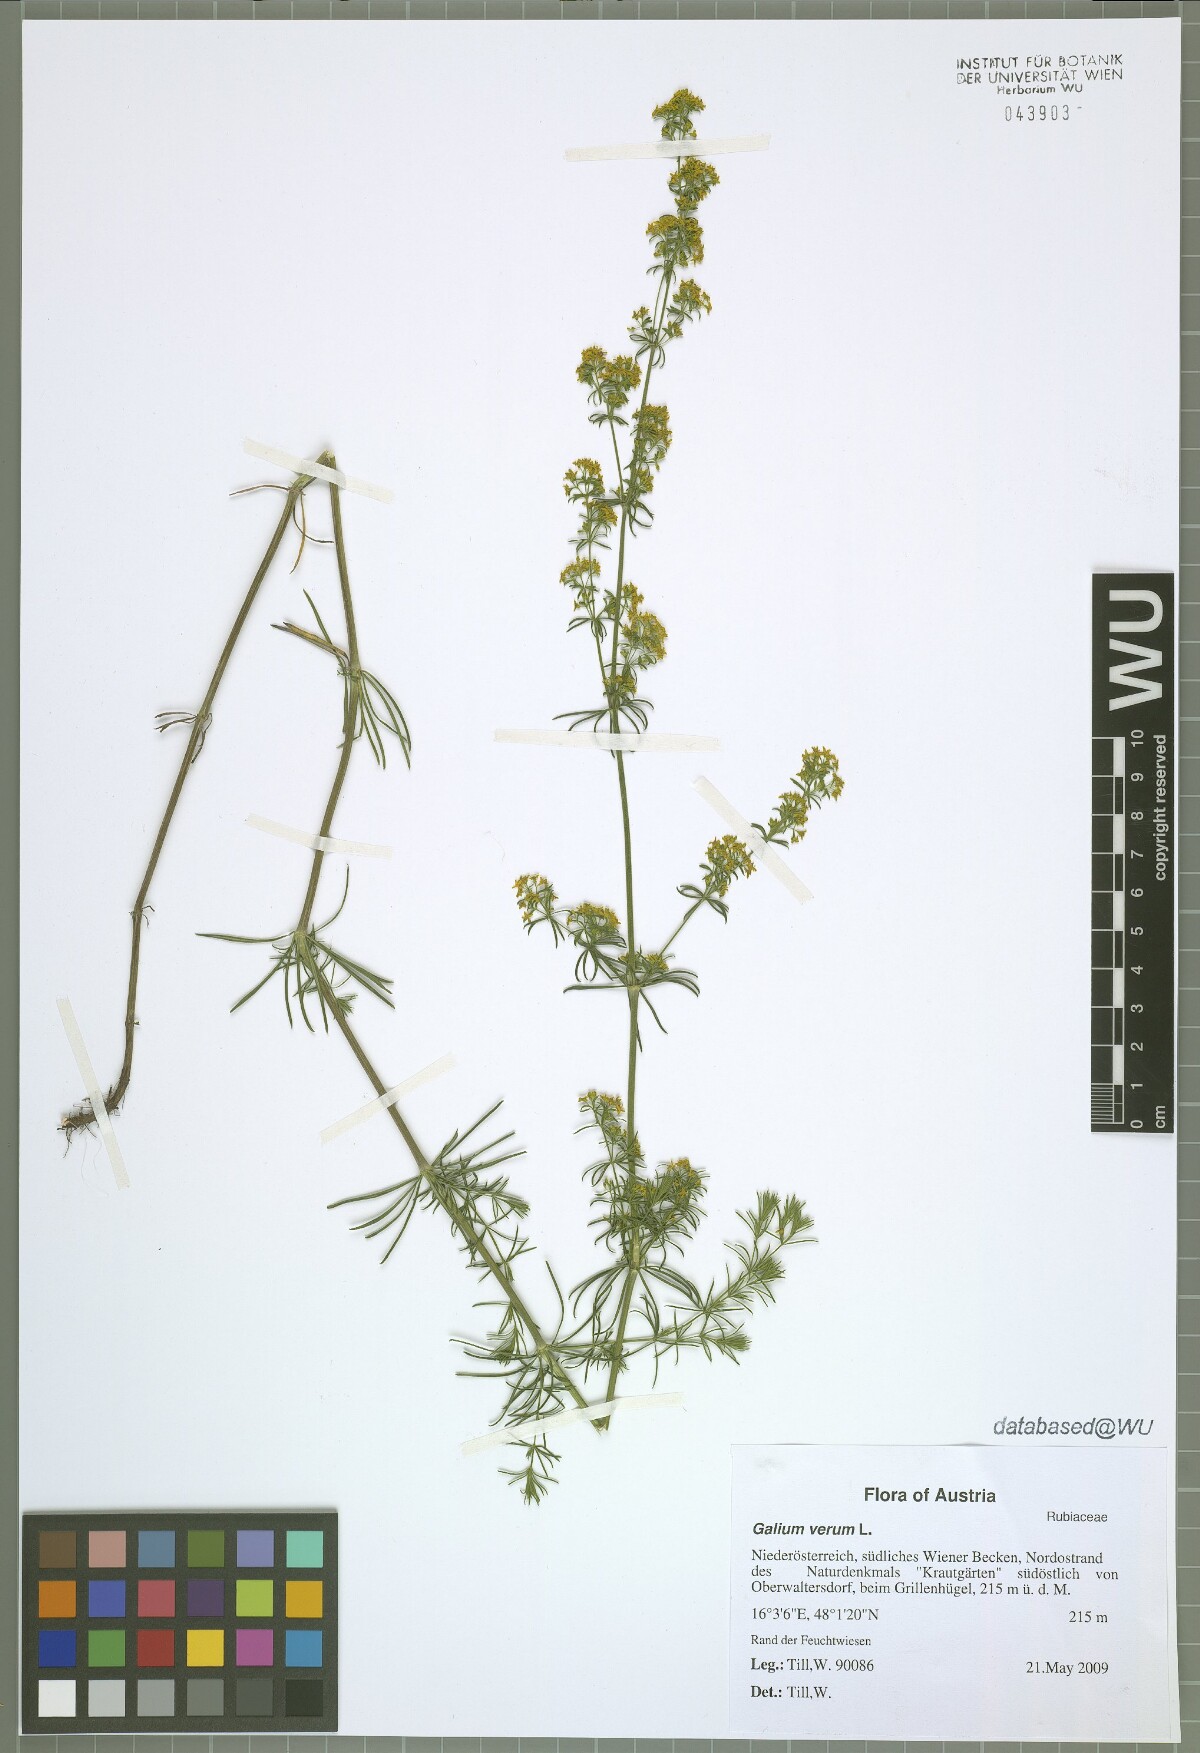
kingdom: Plantae
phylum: Tracheophyta
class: Magnoliopsida
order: Gentianales
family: Rubiaceae
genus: Galium
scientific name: Galium verum
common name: Lady's bedstraw
